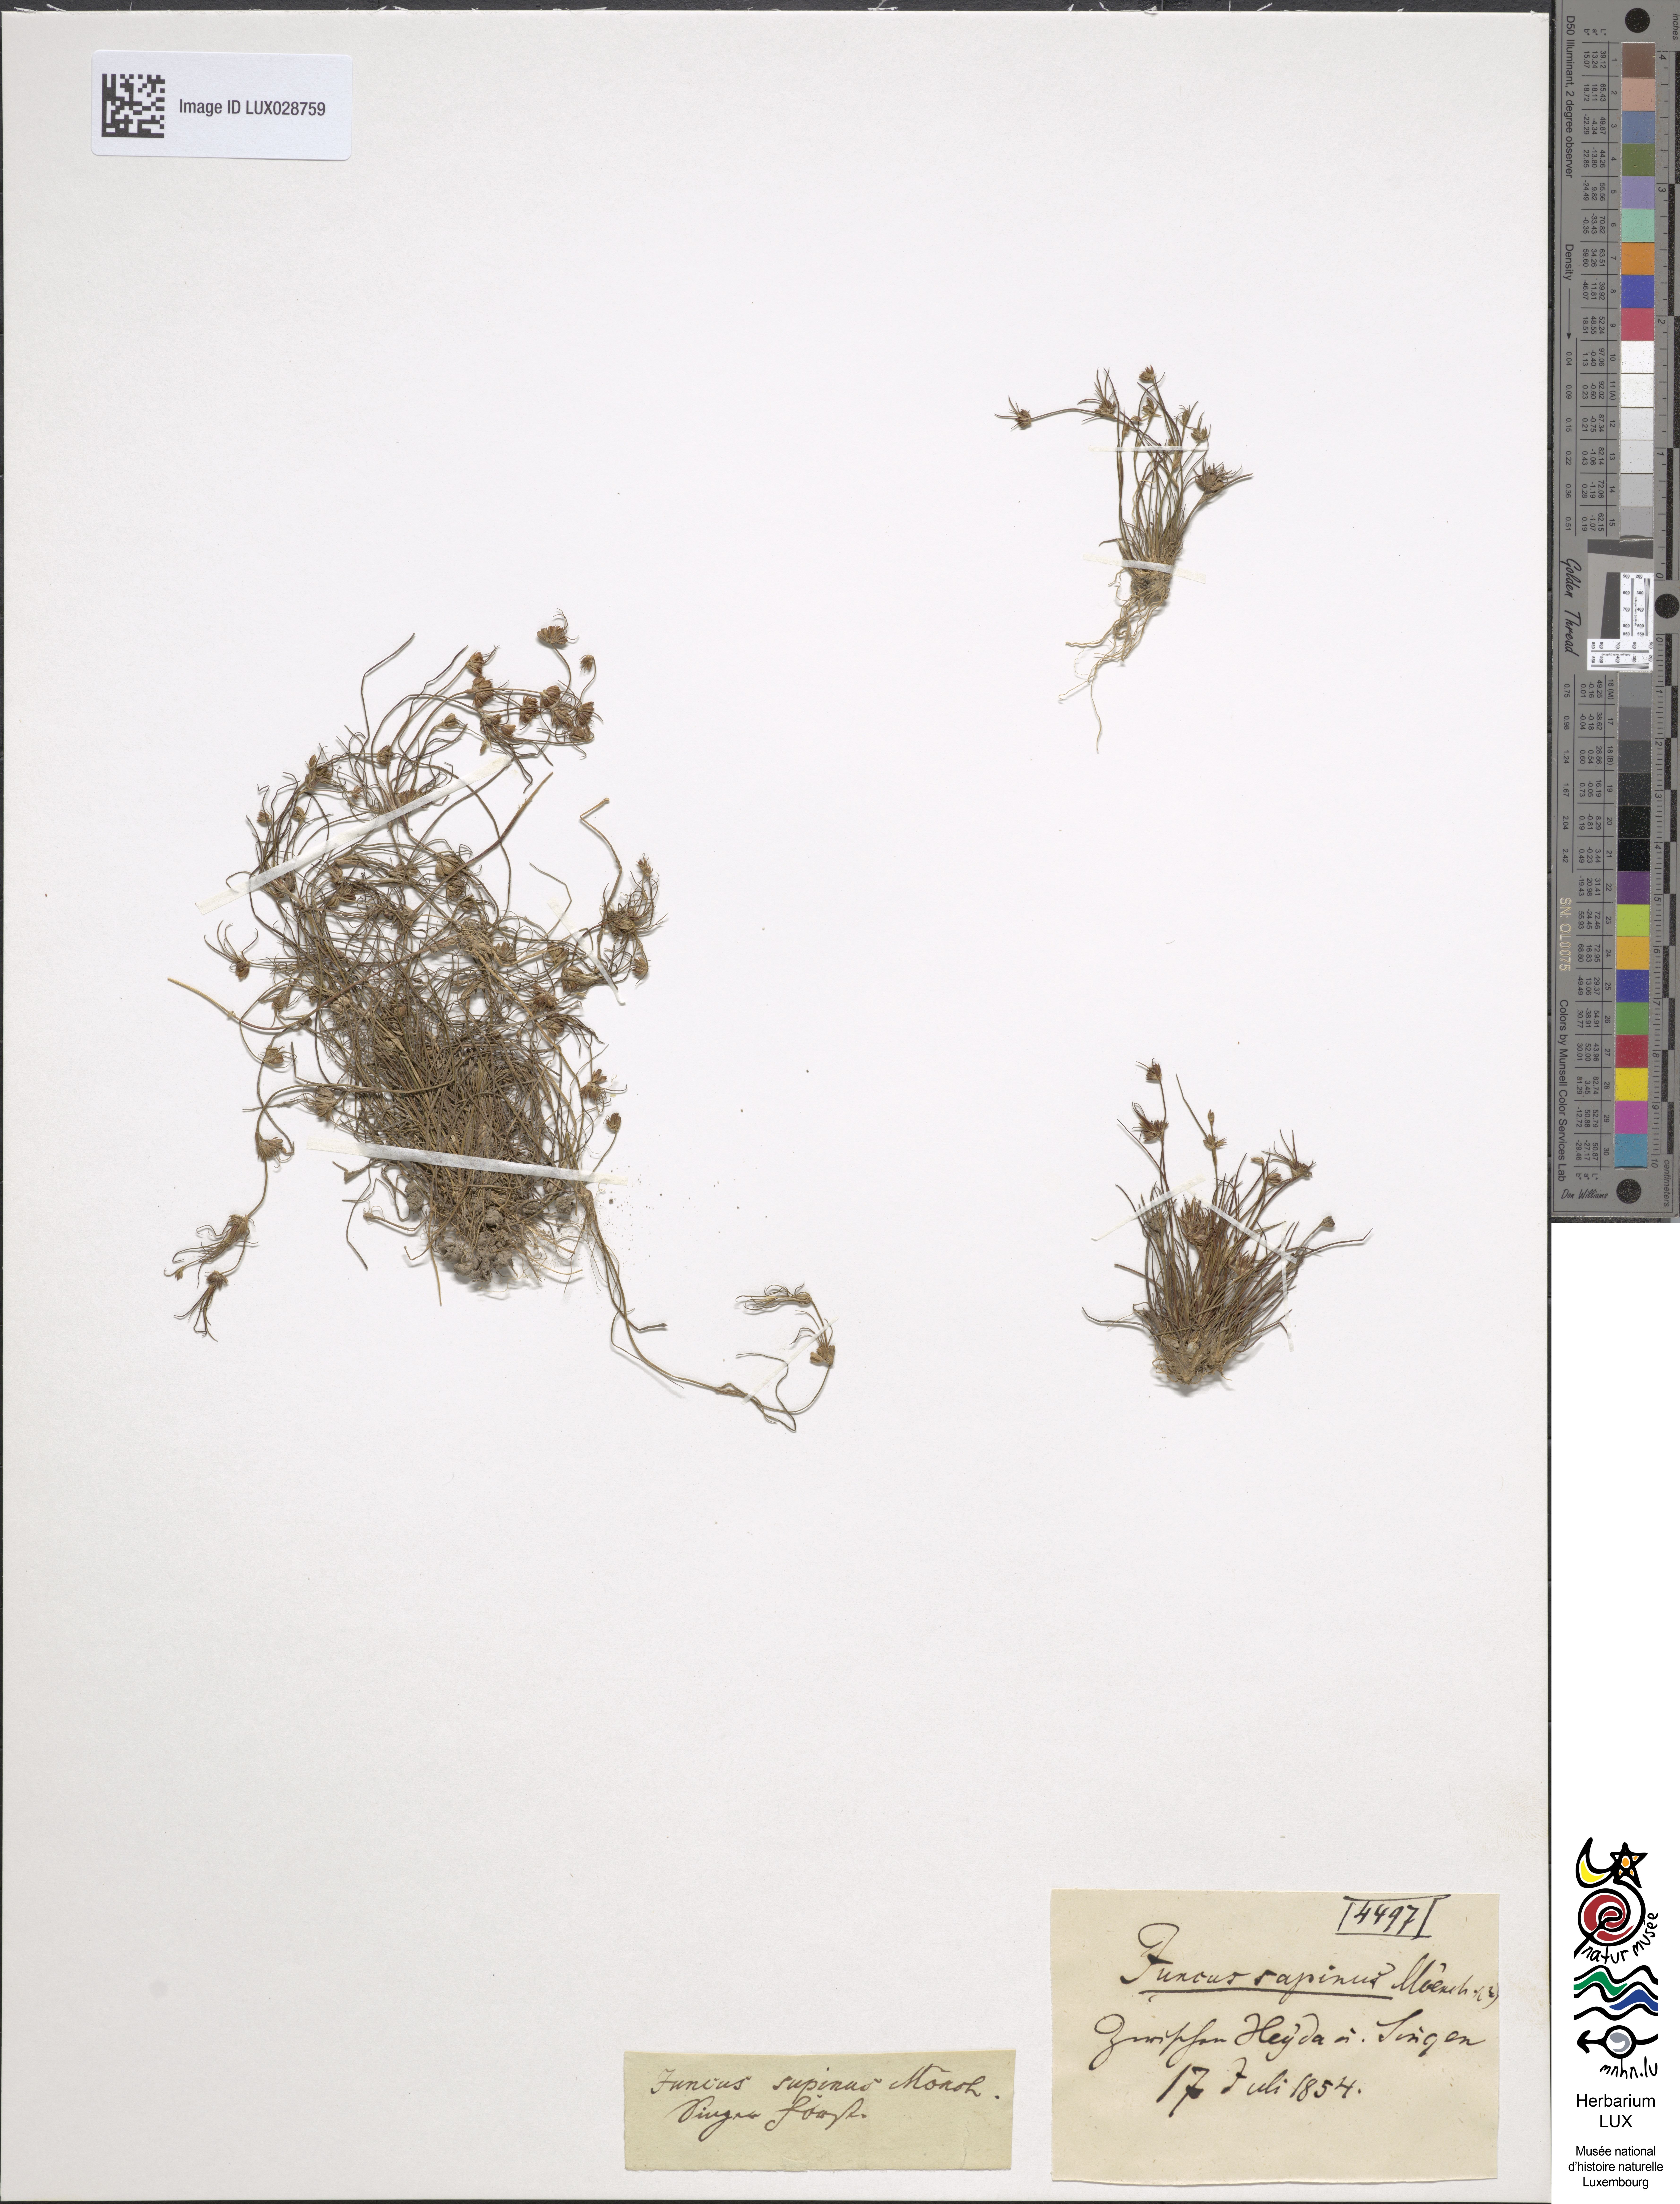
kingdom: Plantae
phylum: Tracheophyta
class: Liliopsida
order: Poales
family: Juncaceae
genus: Juncus
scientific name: Juncus bulbosus
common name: Bulbous rush
